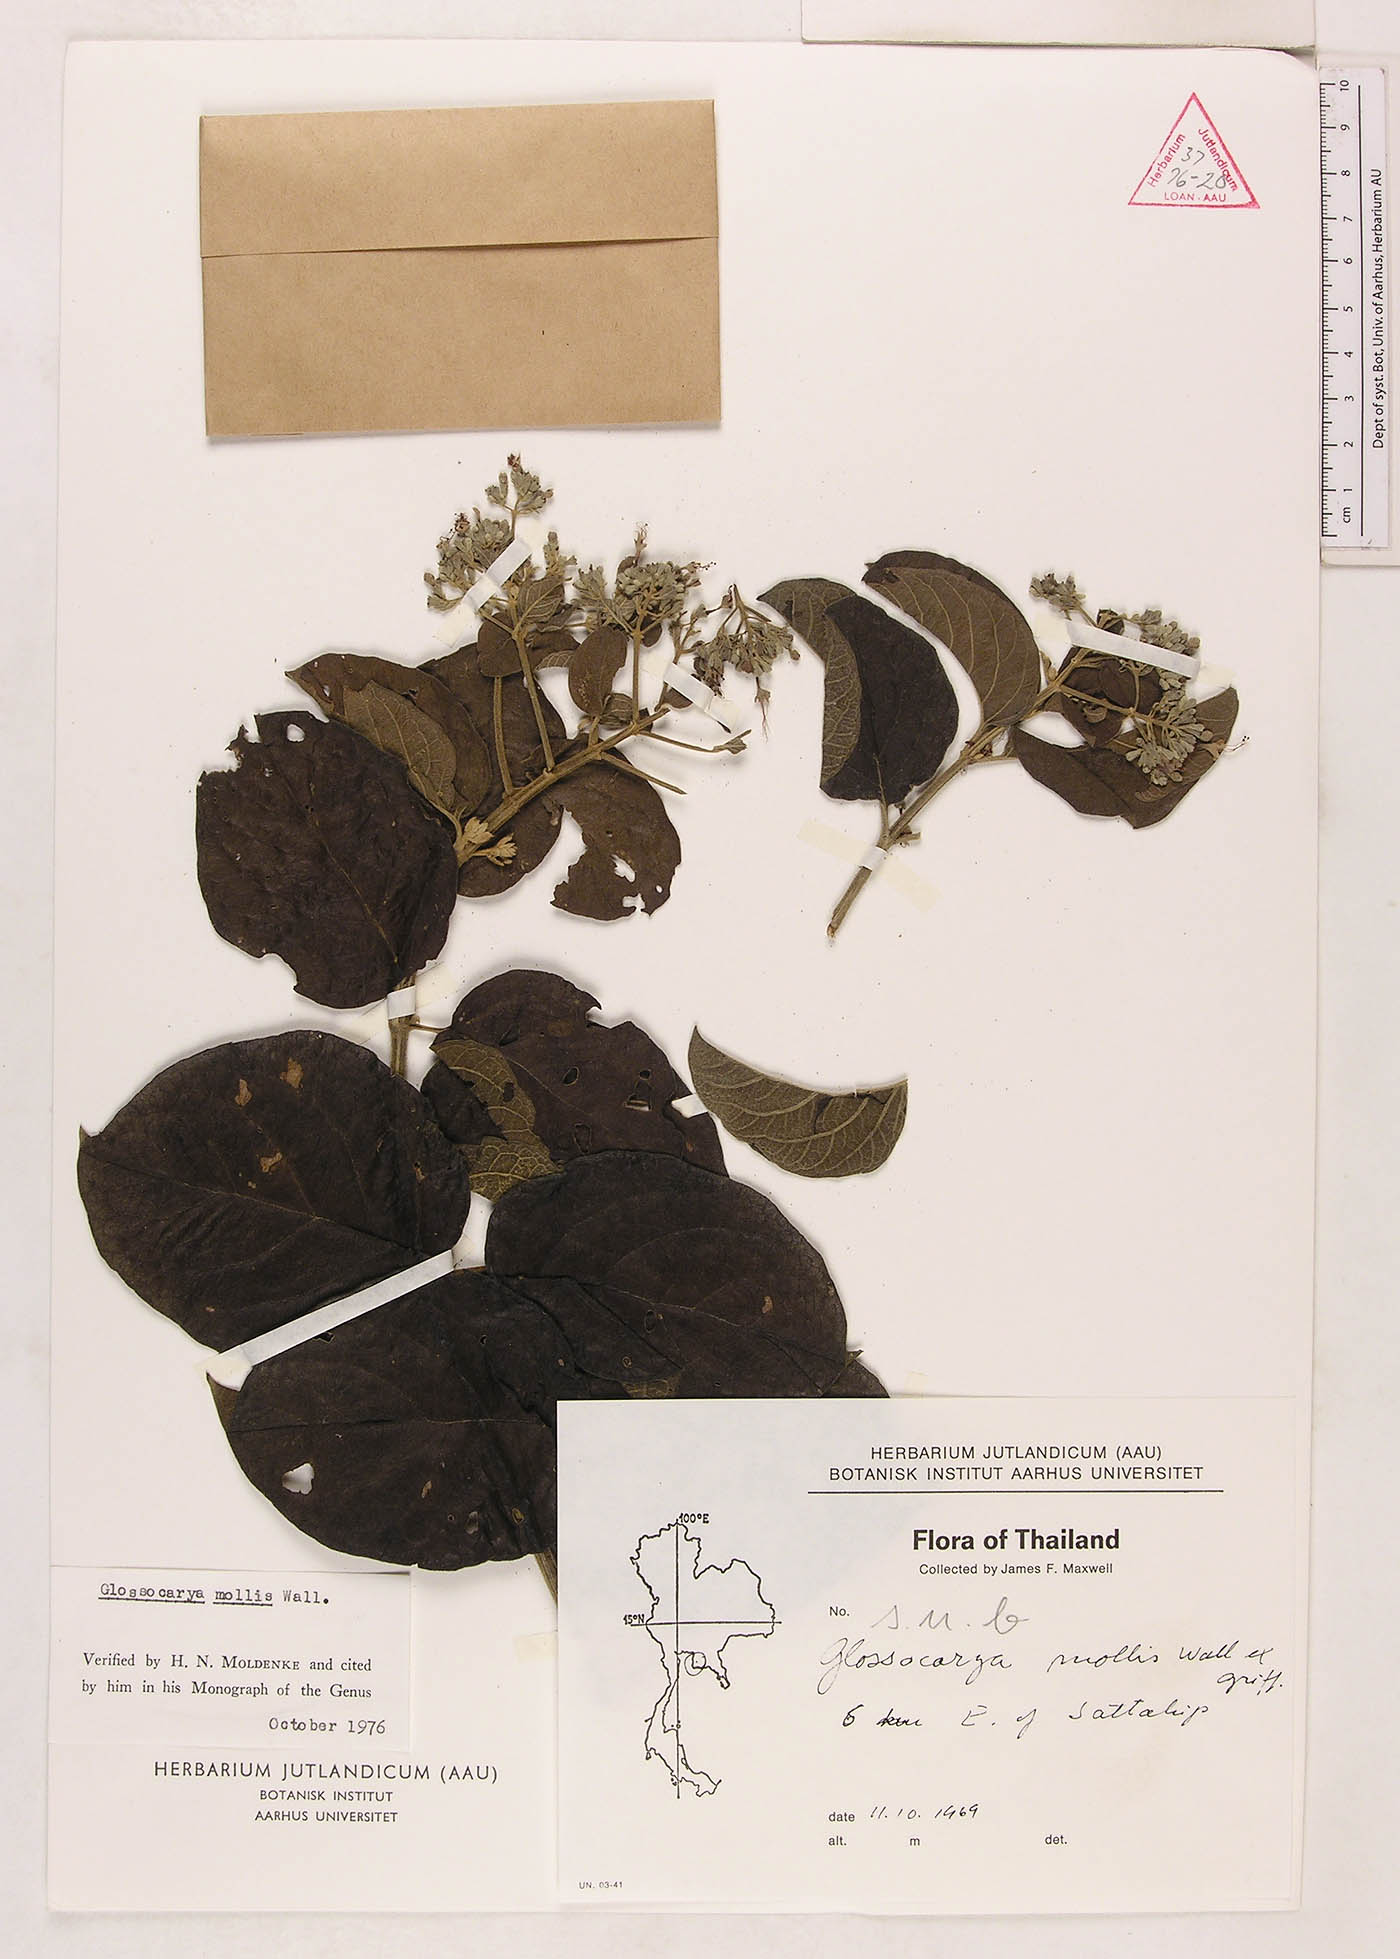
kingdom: Plantae
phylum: Tracheophyta
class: Magnoliopsida
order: Lamiales
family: Lamiaceae
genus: Glossocarya
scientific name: Glossocarya mollis
